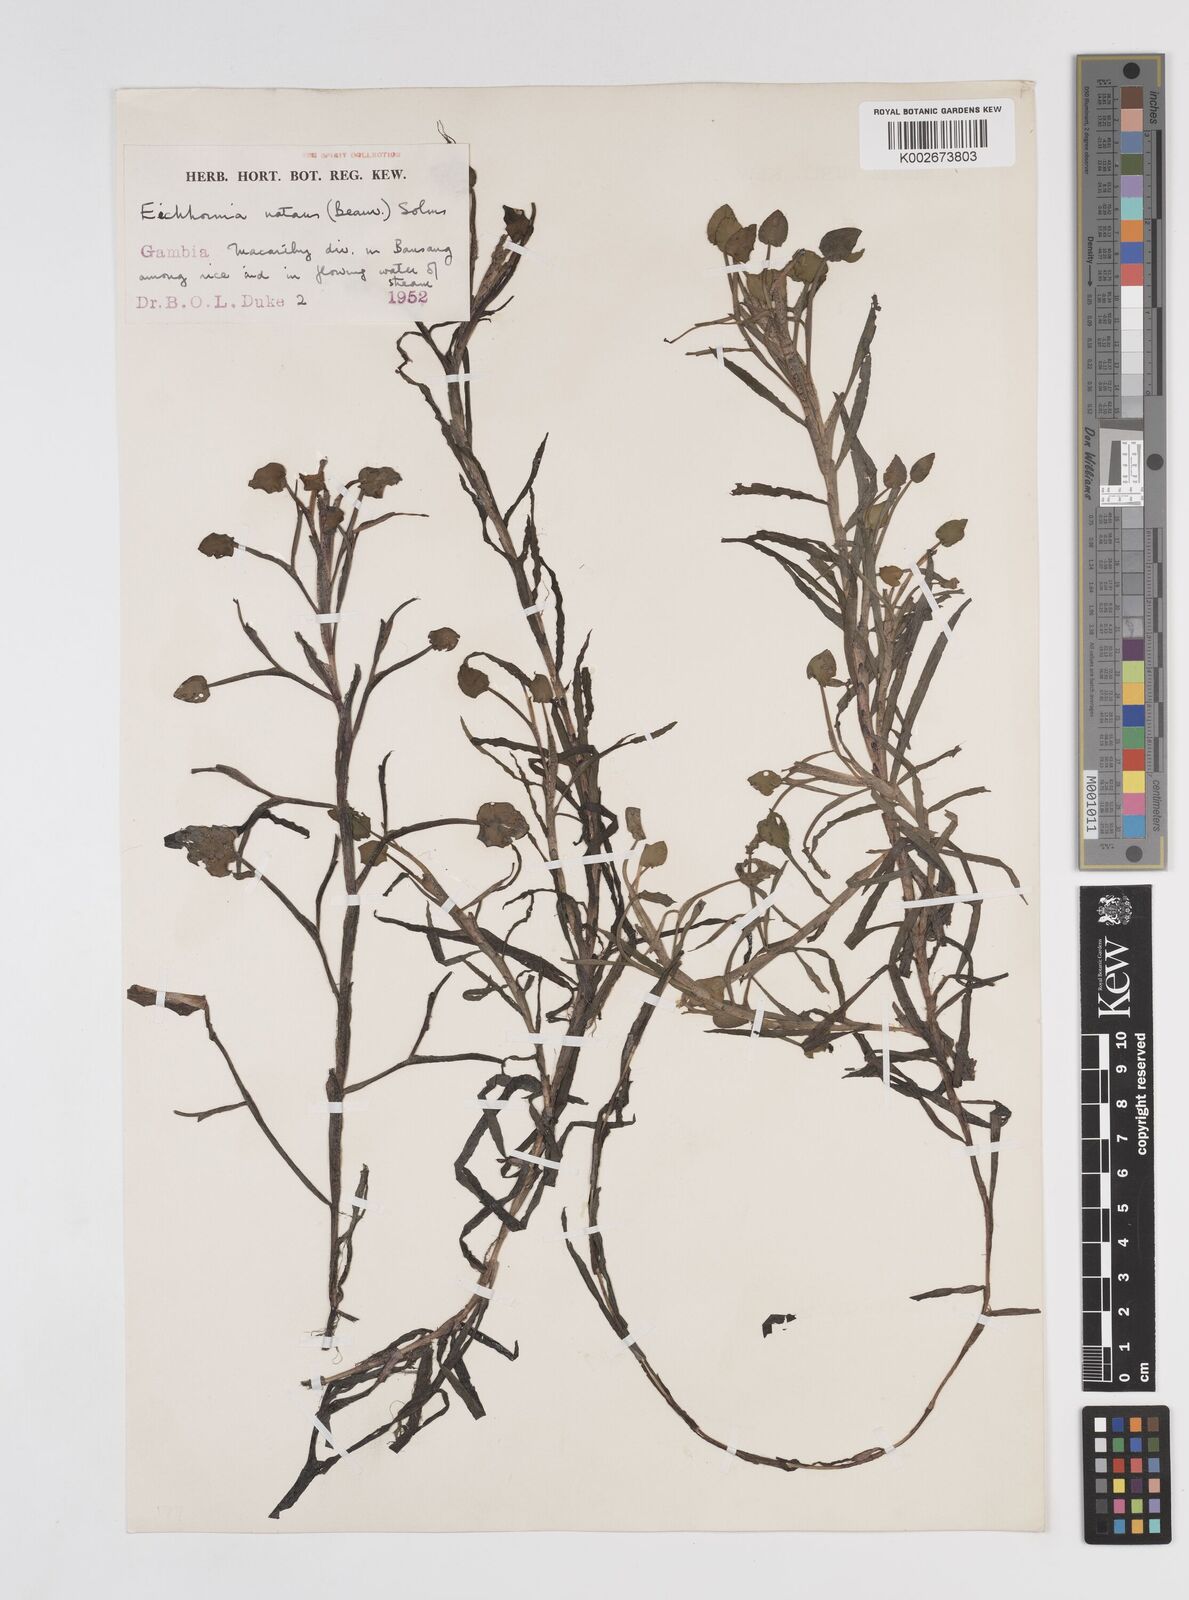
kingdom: Plantae
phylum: Tracheophyta
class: Liliopsida
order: Commelinales
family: Pontederiaceae
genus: Pontederia
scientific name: Pontederia diversifolia
